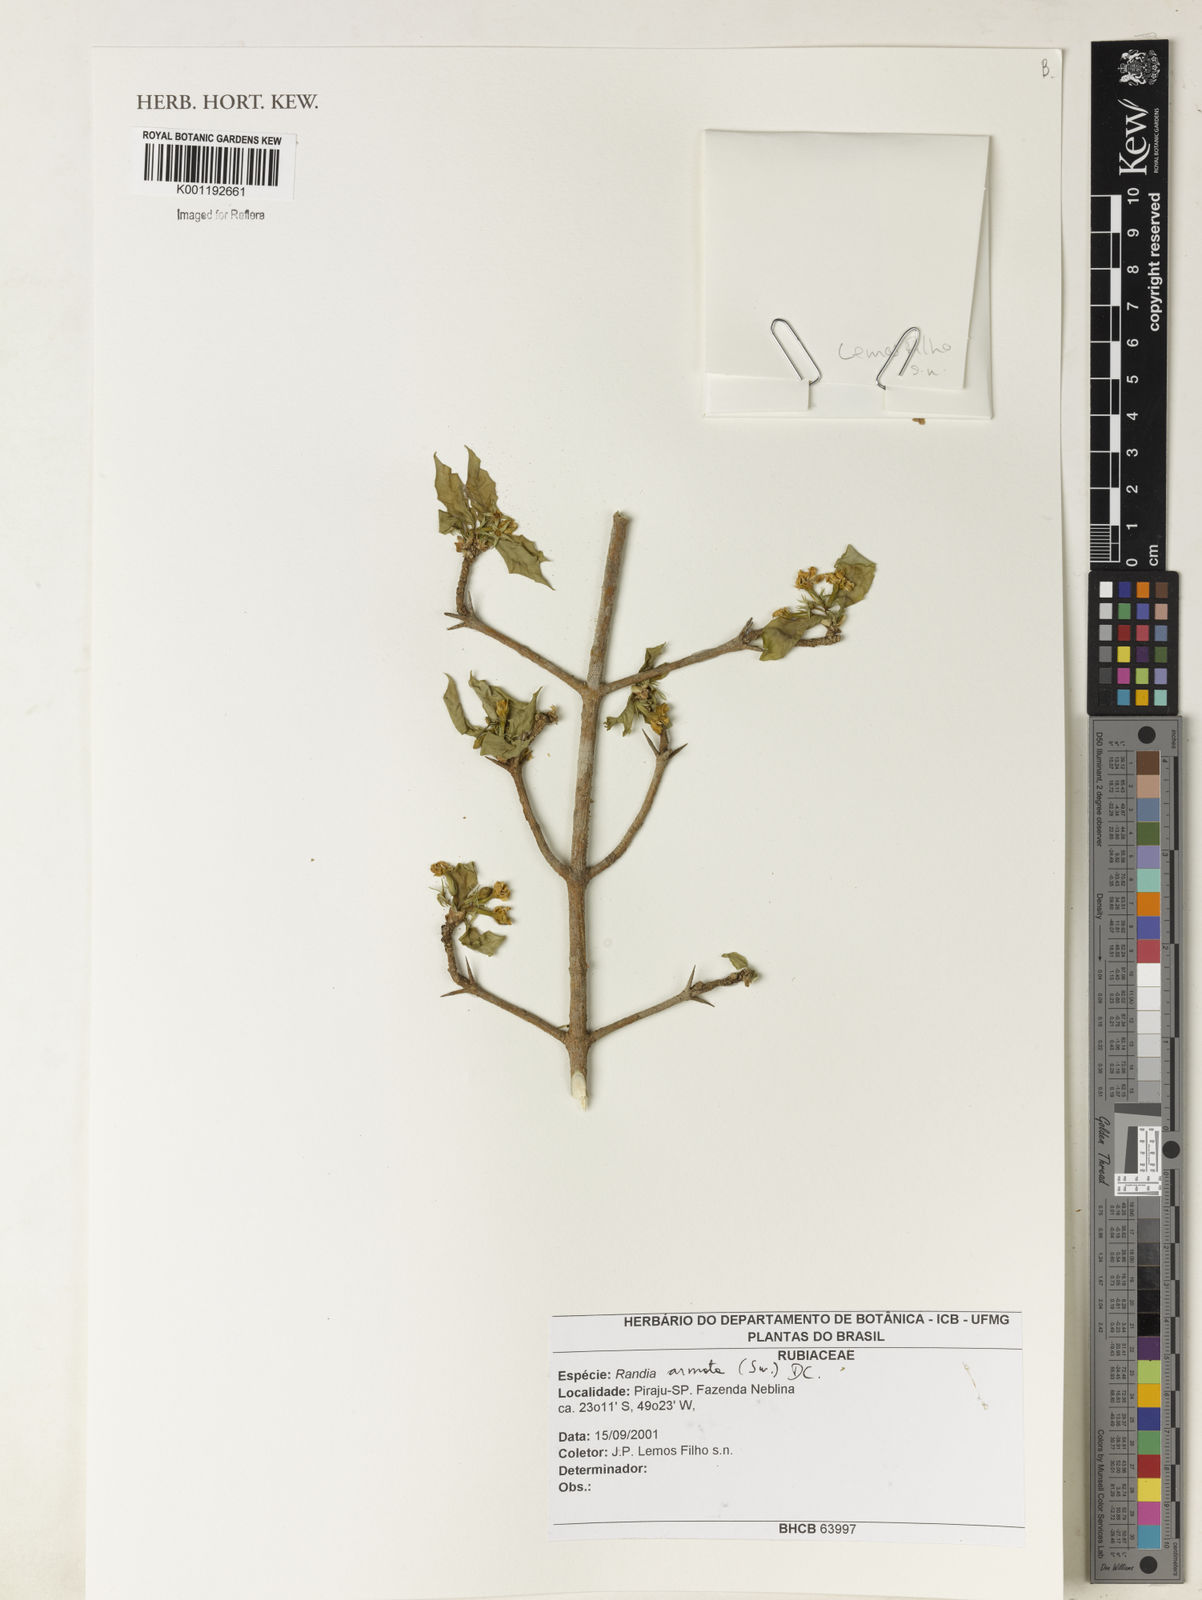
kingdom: Plantae
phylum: Tracheophyta
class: Magnoliopsida
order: Gentianales
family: Rubiaceae
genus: Randia
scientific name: Randia armata
